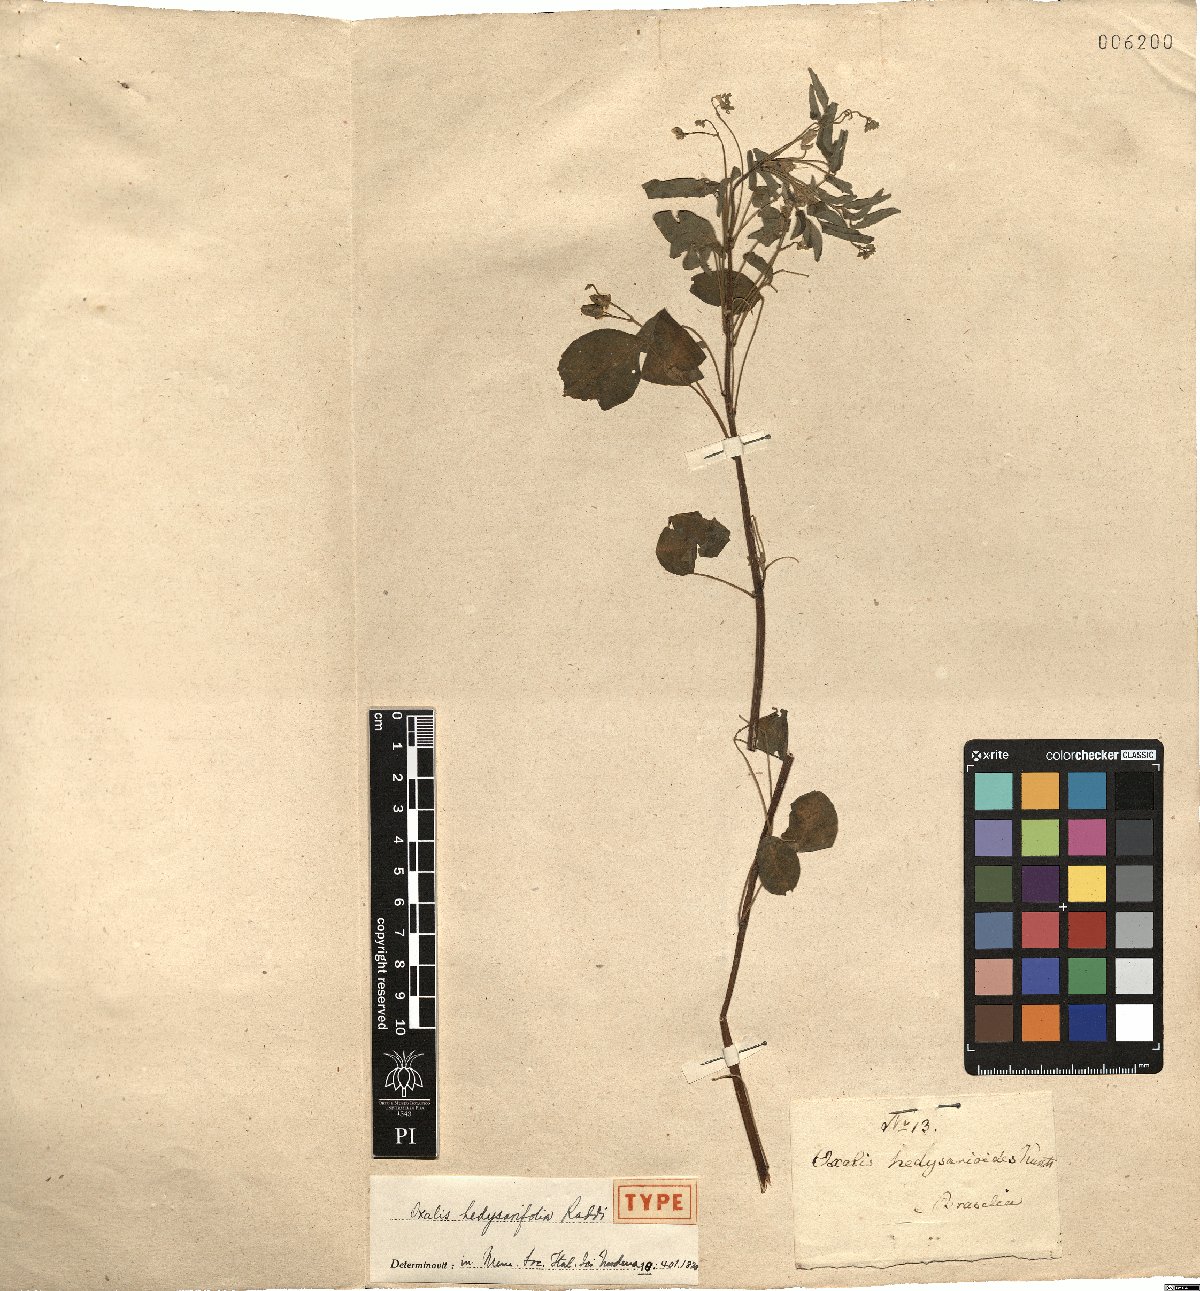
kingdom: Plantae
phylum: Tracheophyta
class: Magnoliopsida
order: Oxalidales
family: Oxalidaceae
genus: Oxalis
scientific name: Oxalis hedysaroides
